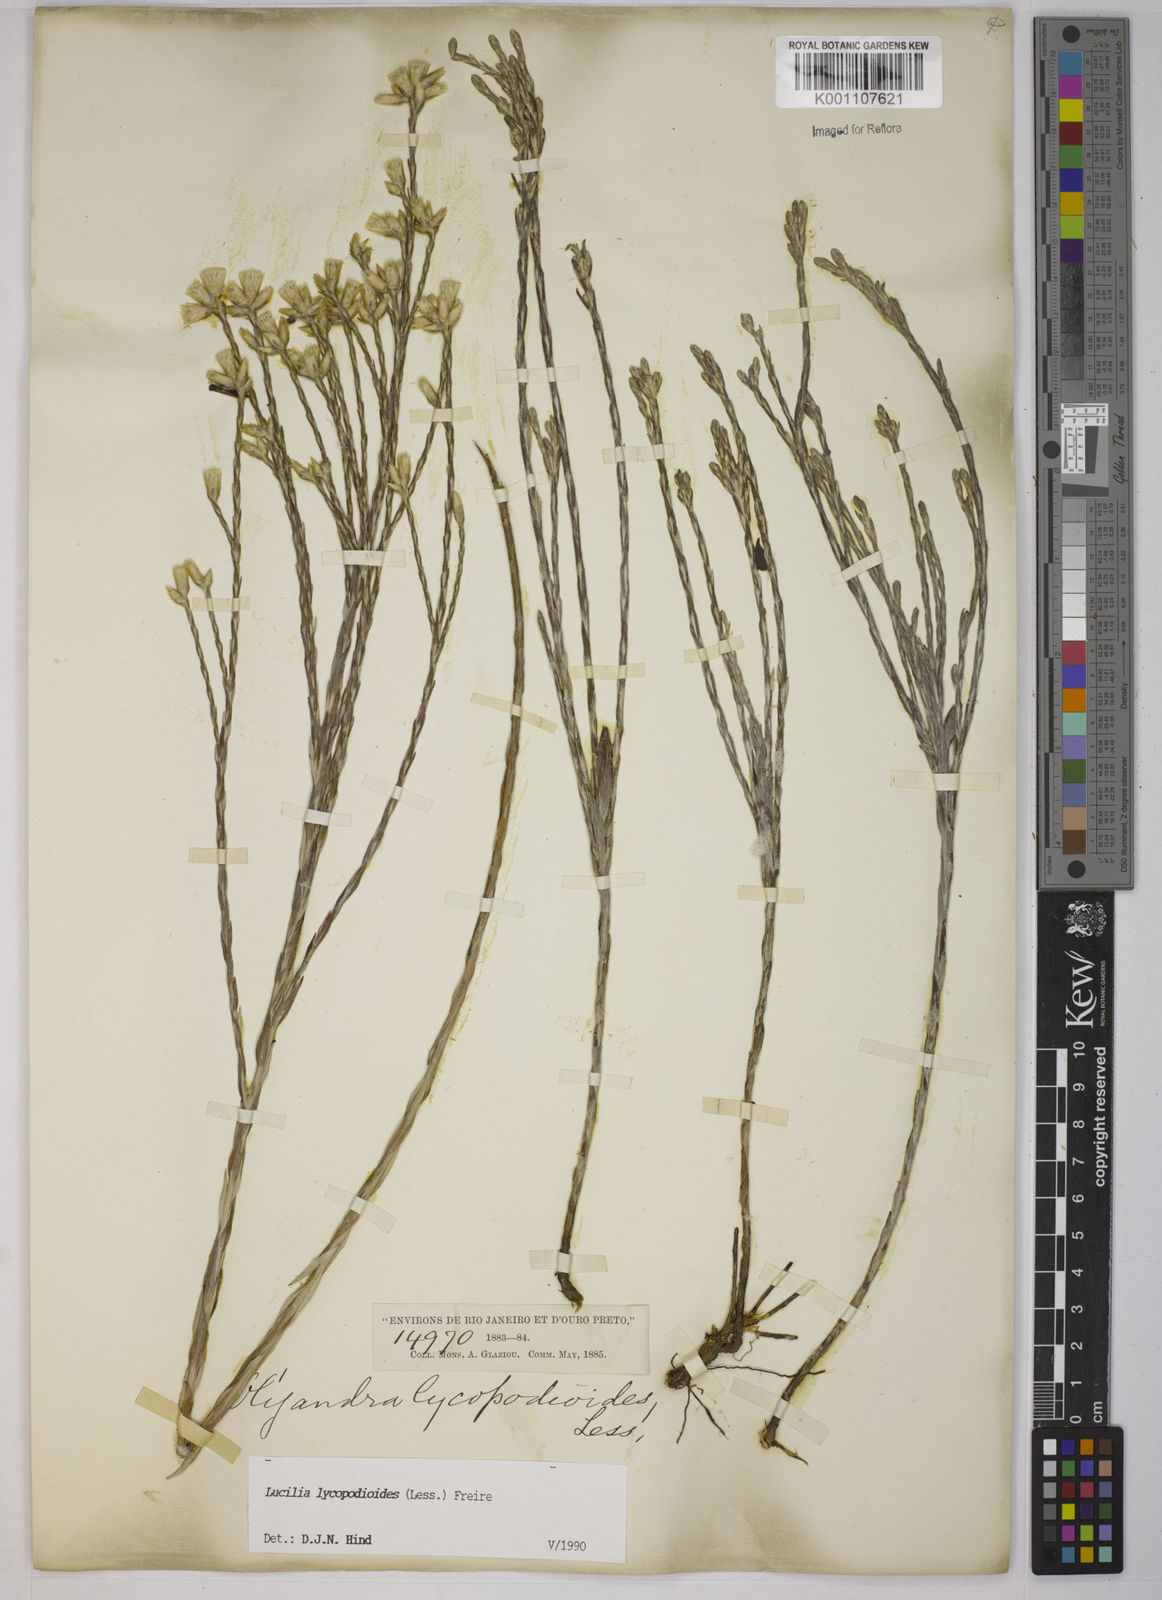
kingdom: Plantae
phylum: Tracheophyta
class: Magnoliopsida
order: Asterales
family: Asteraceae
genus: Lucilia
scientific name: Lucilia lycopodioides
